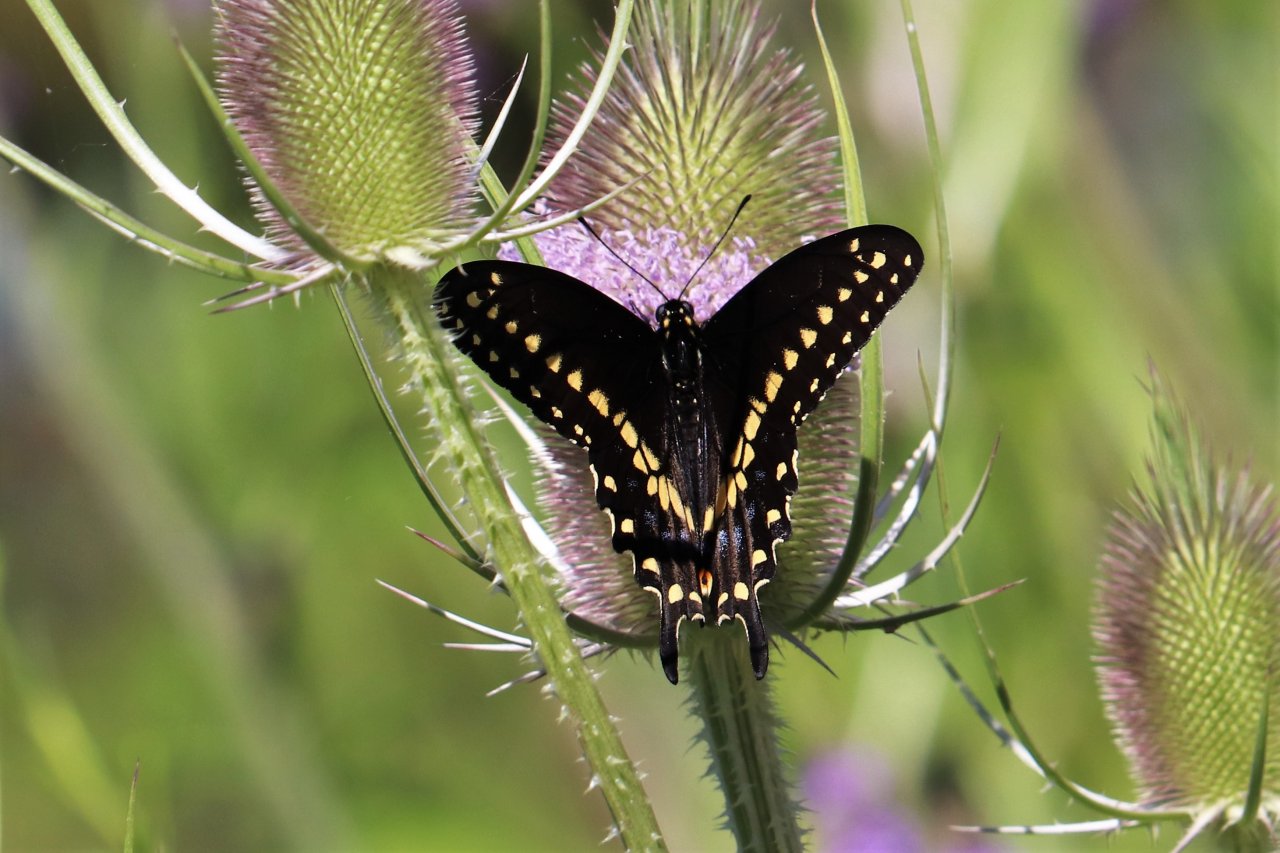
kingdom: Animalia
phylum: Arthropoda
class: Insecta
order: Lepidoptera
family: Papilionidae
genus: Papilio
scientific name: Papilio polyxenes
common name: Black Swallowtail
